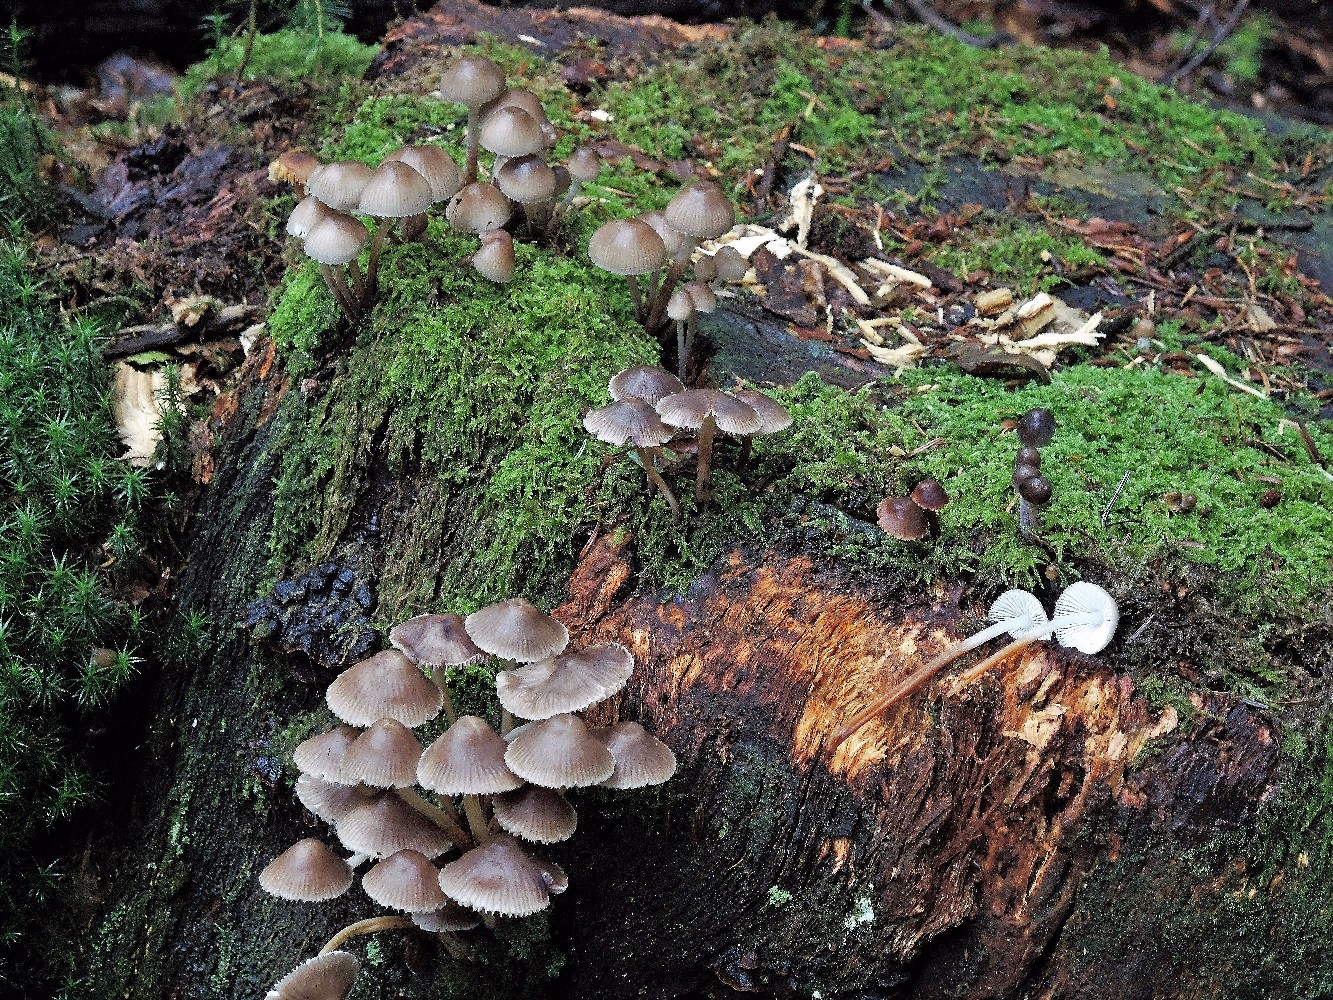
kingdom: Fungi
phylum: Basidiomycota
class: Agaricomycetes
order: Agaricales
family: Mycenaceae
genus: Mycena
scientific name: Mycena inclinata
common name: nikkende huesvamp
